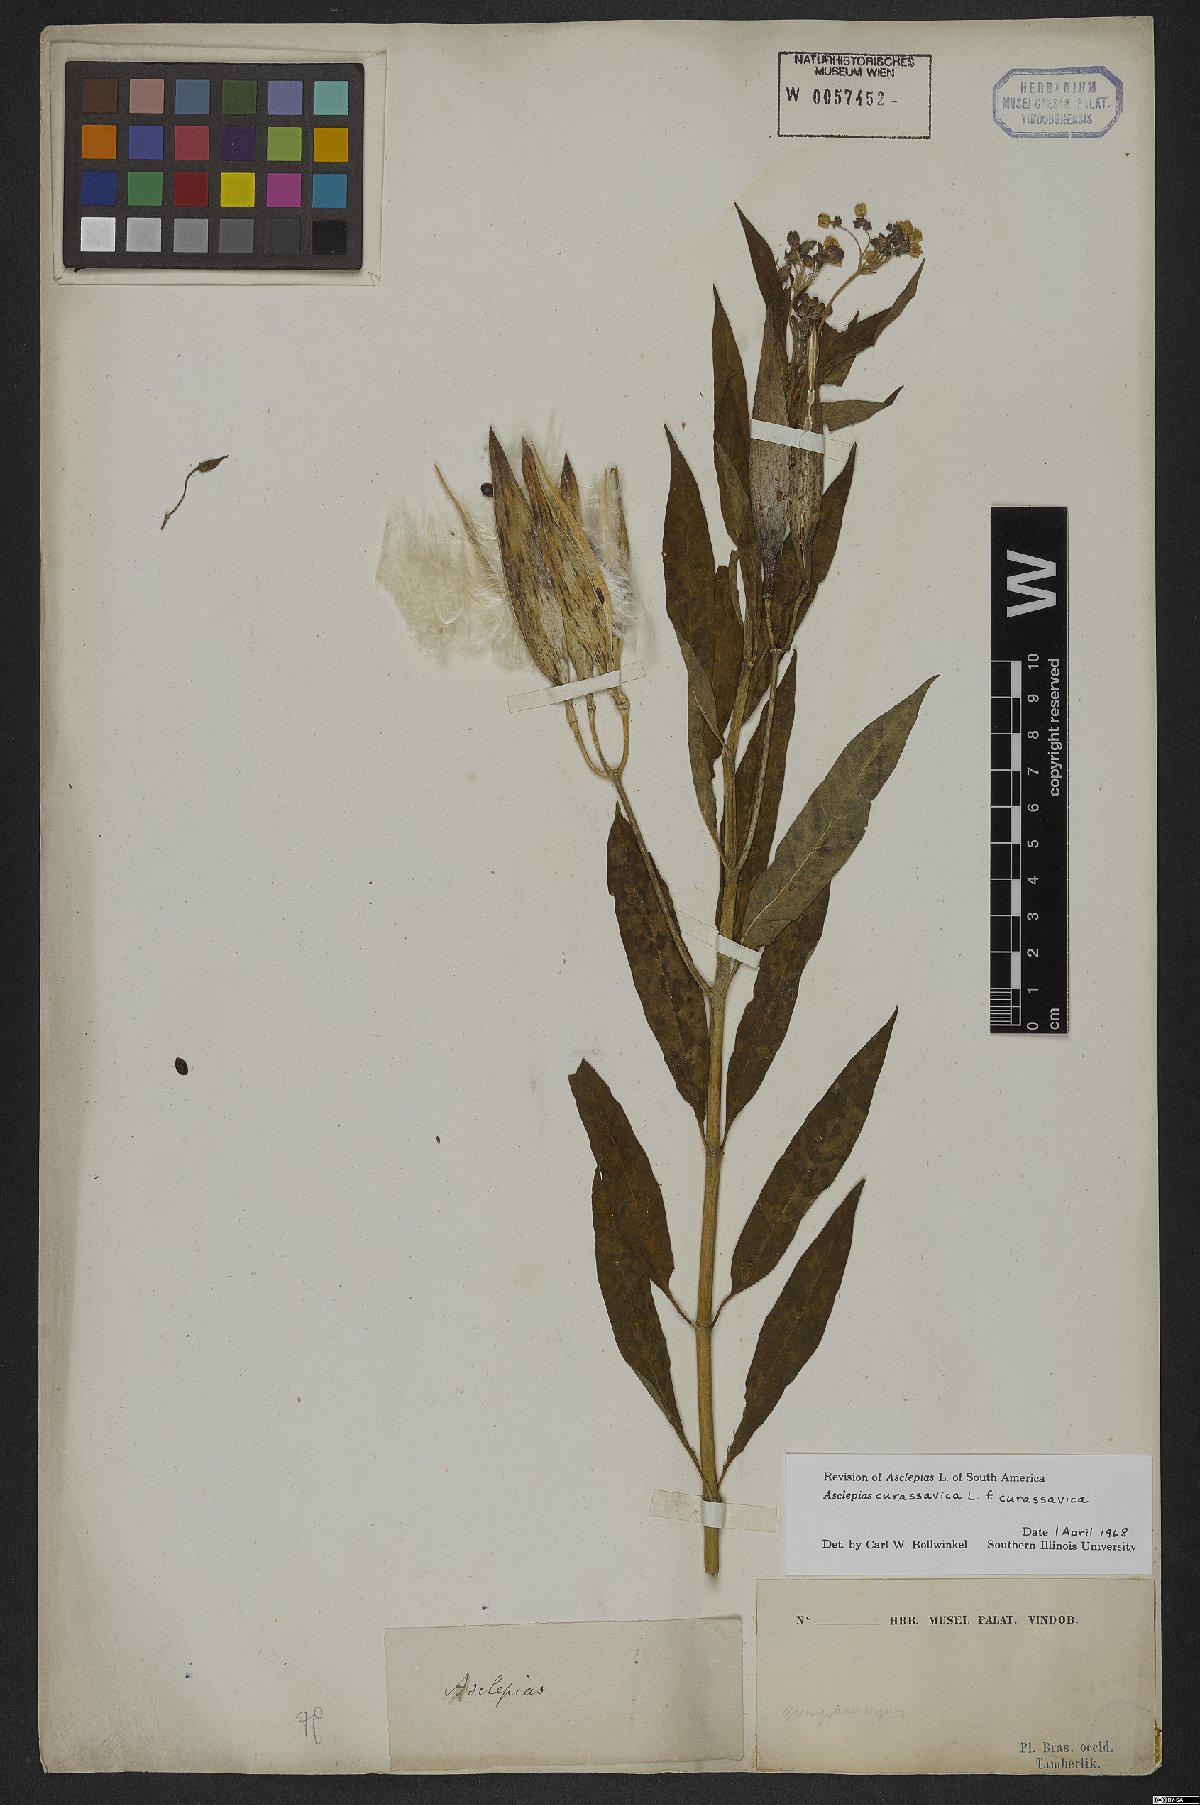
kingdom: Plantae
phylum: Tracheophyta
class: Magnoliopsida
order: Gentianales
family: Apocynaceae
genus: Asclepias
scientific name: Asclepias curassavica
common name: Bloodflower
